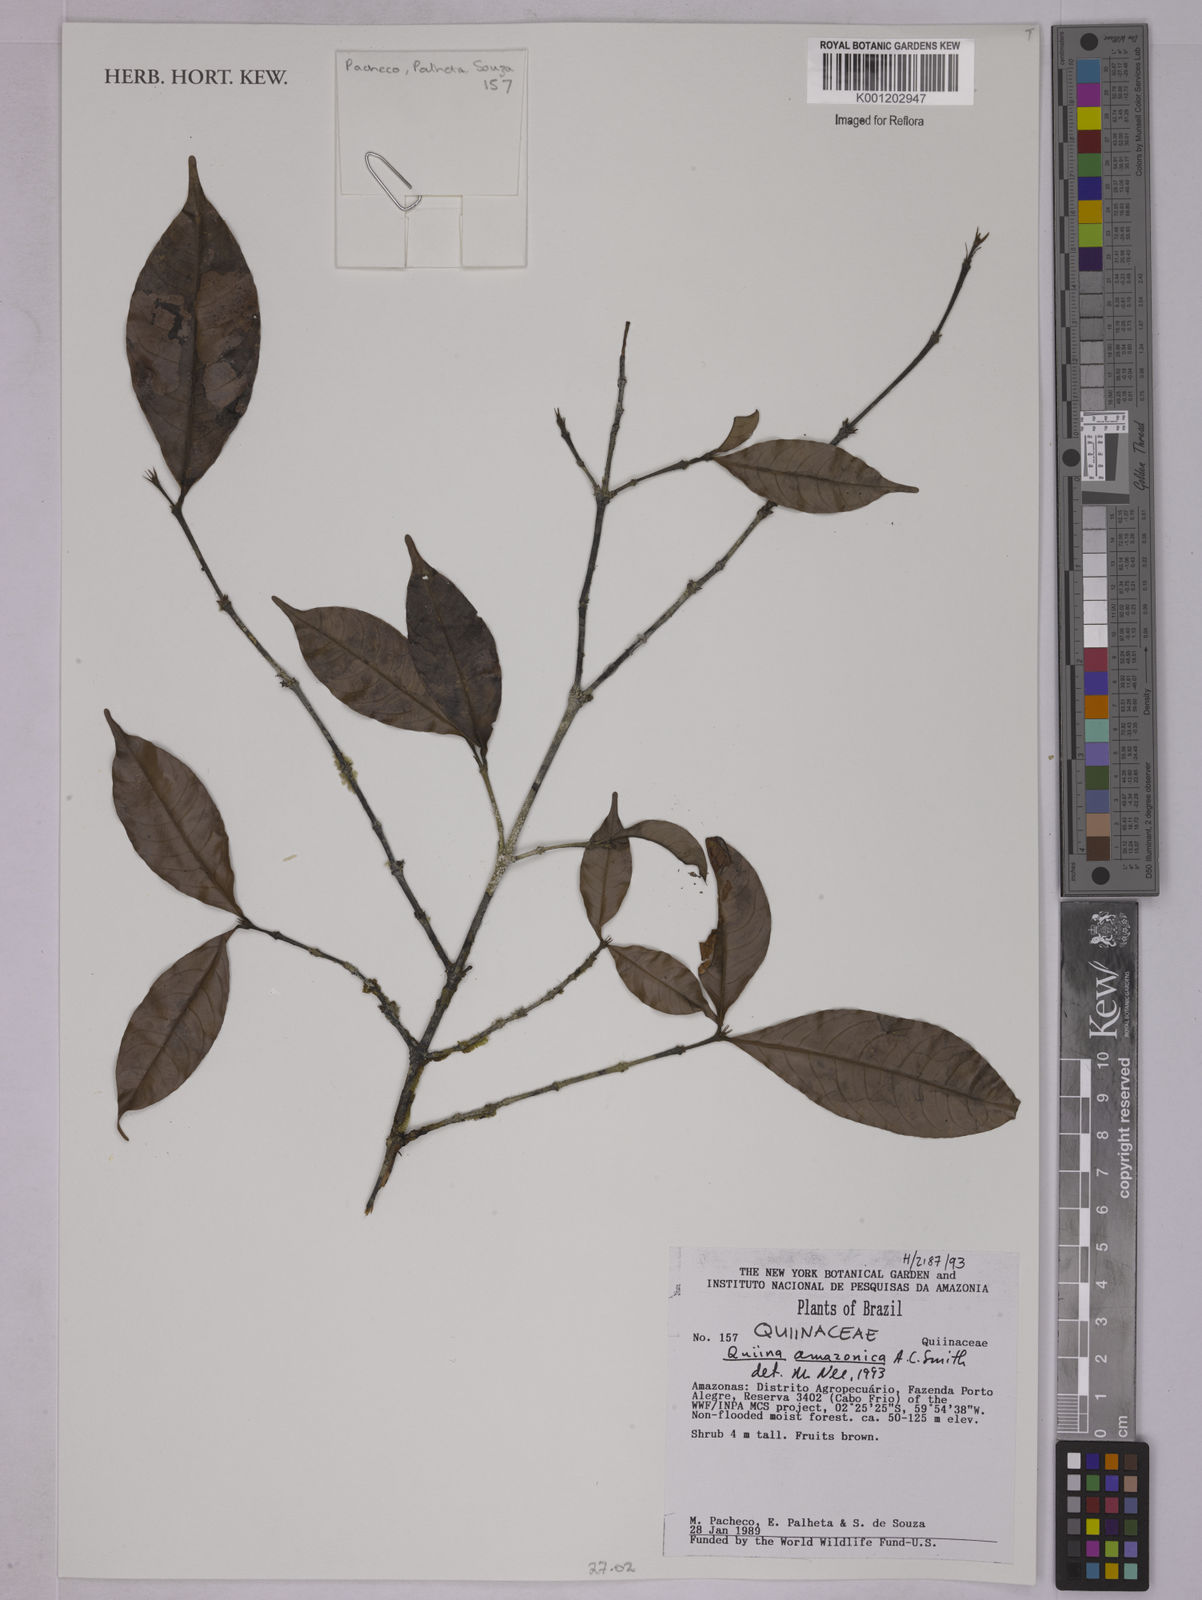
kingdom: Plantae
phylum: Tracheophyta
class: Magnoliopsida
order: Malpighiales
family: Quiinaceae
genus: Quiina
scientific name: Quiina amazonica
